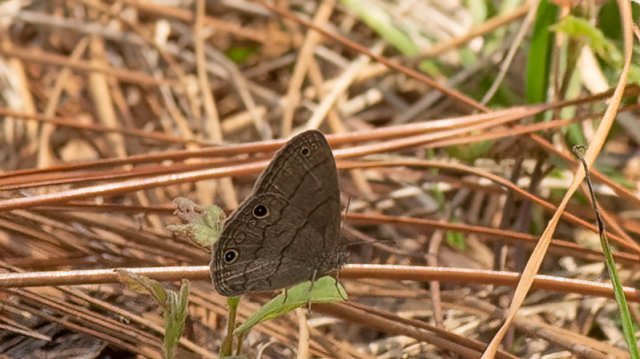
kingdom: Animalia
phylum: Arthropoda
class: Insecta
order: Lepidoptera
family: Nymphalidae
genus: Hermeuptychia
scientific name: Hermeuptychia hermes
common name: Carolina Satyr
